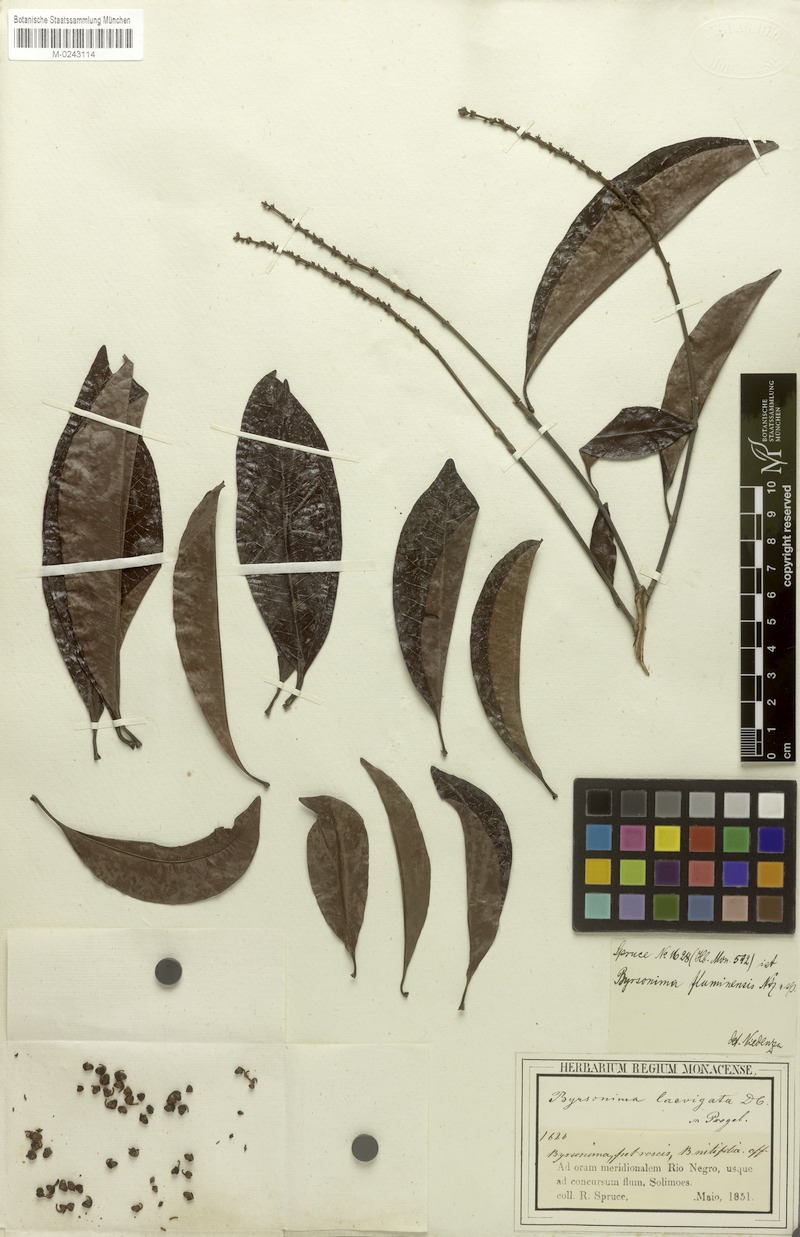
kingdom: Plantae
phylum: Tracheophyta
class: Magnoliopsida
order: Malpighiales
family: Malpighiaceae
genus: Byrsonima
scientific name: Byrsonima japurensis
